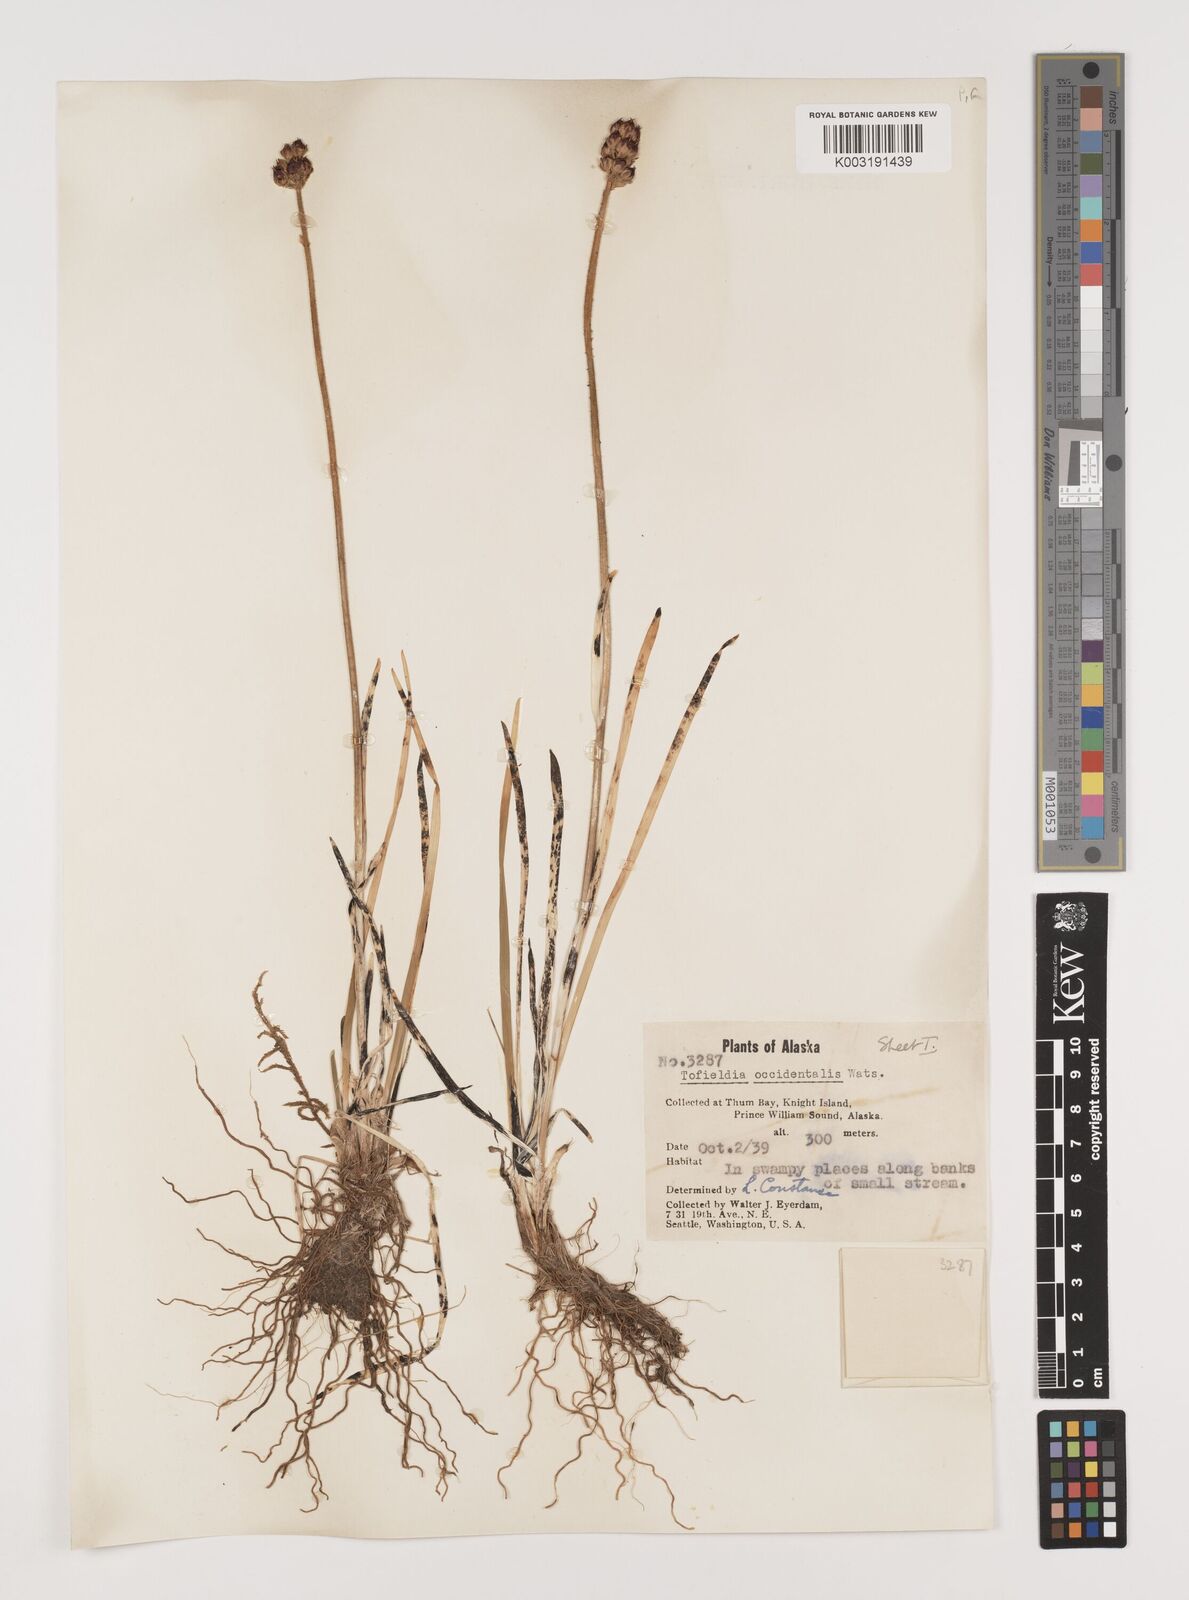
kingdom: Plantae
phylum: Tracheophyta
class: Liliopsida
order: Alismatales
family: Tofieldiaceae
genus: Triantha
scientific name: Triantha occidentalis
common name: Western false asphodel
